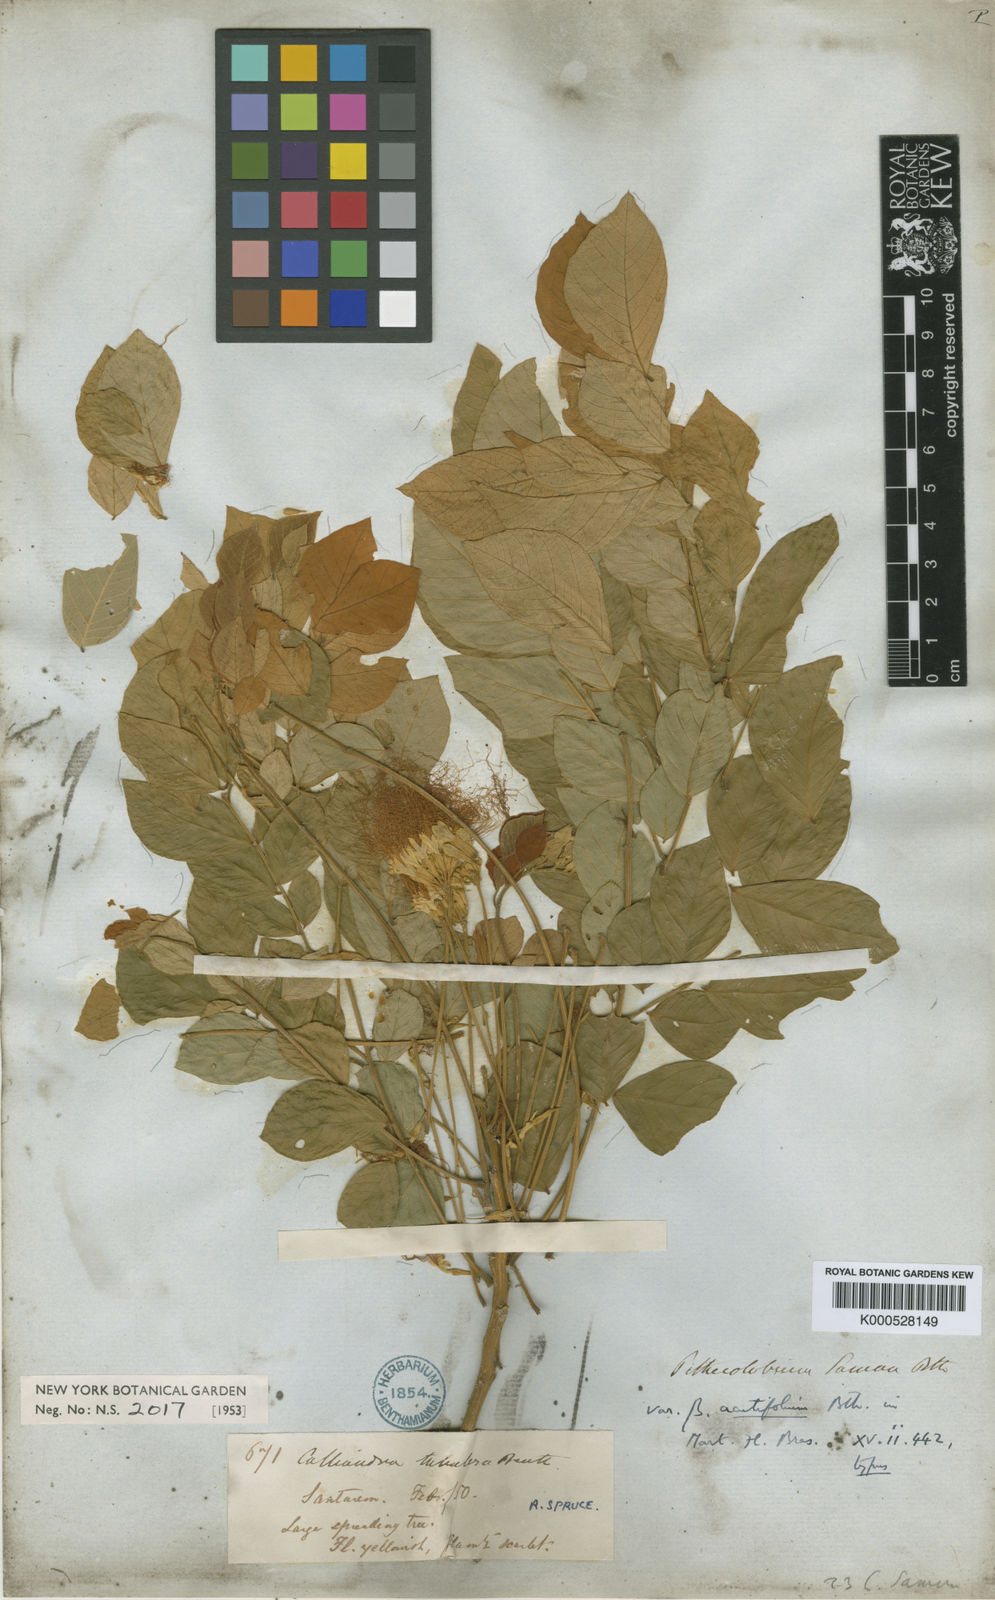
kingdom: Plantae
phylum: Tracheophyta
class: Magnoliopsida
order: Fabales
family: Fabaceae
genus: Samanea
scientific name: Samanea saman
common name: Raintree
